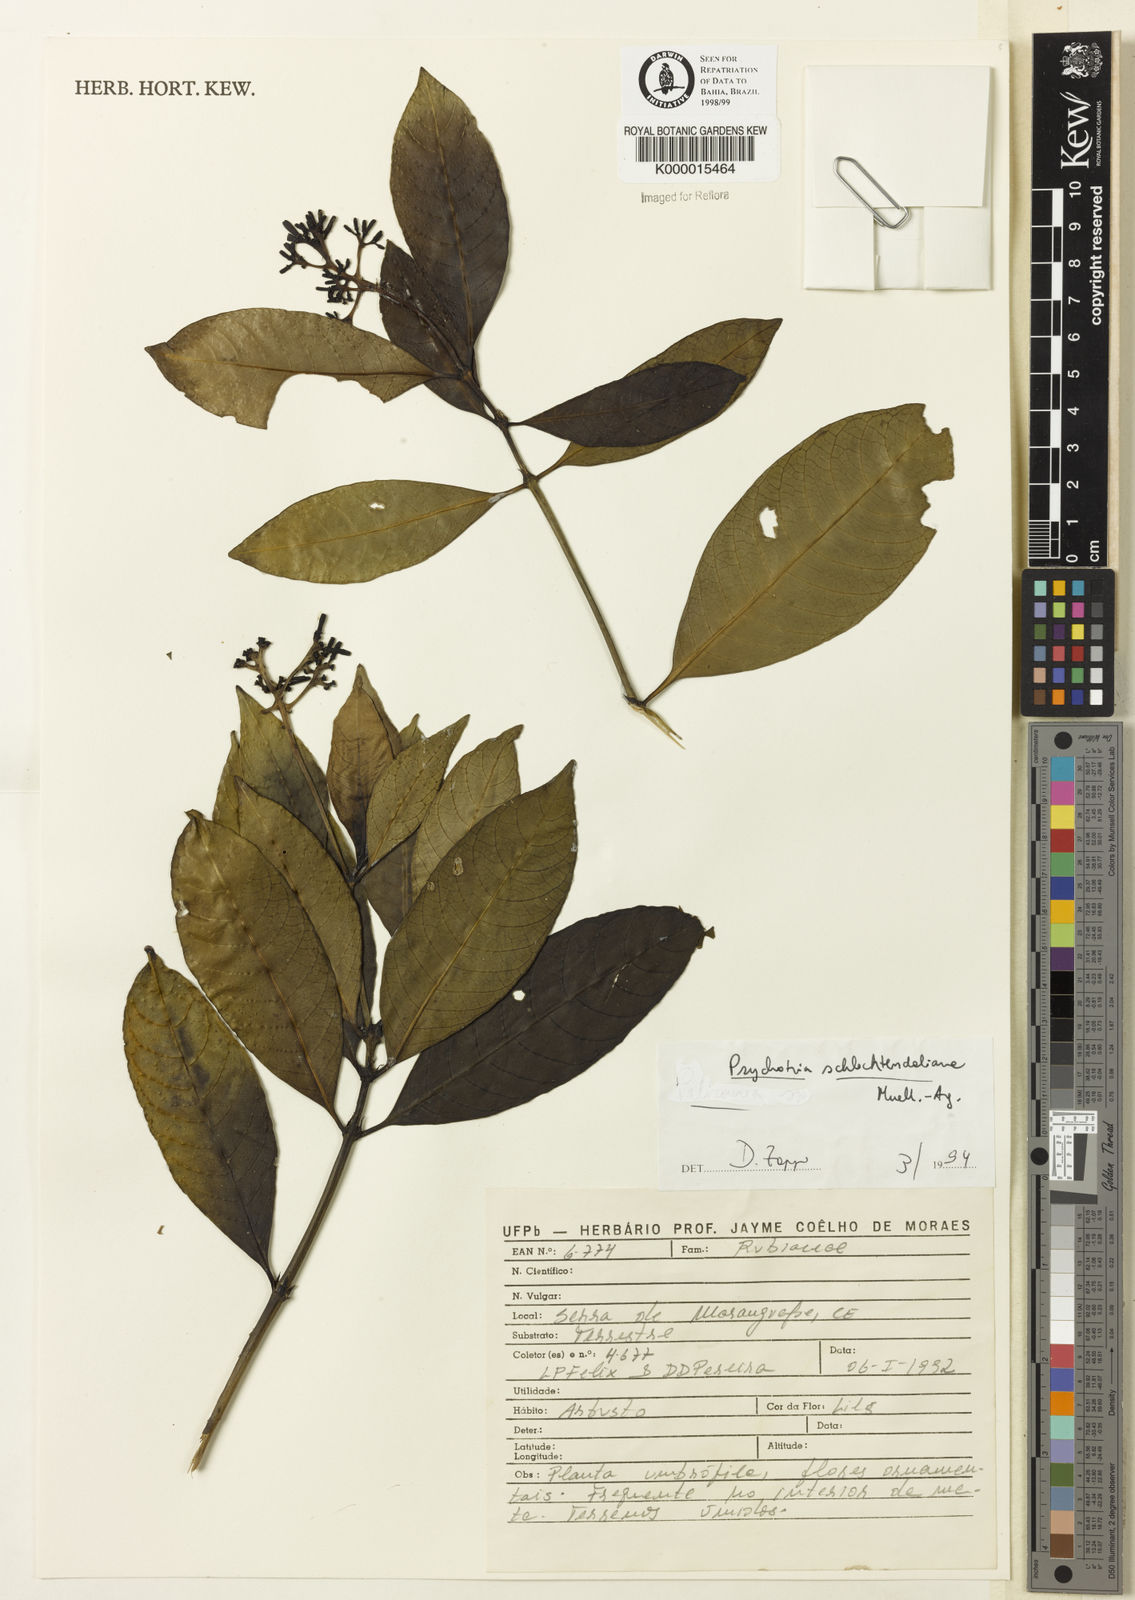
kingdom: Plantae
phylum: Tracheophyta
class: Magnoliopsida
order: Gentianales
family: Rubiaceae
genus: Palicourea
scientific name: Palicourea divaricata
